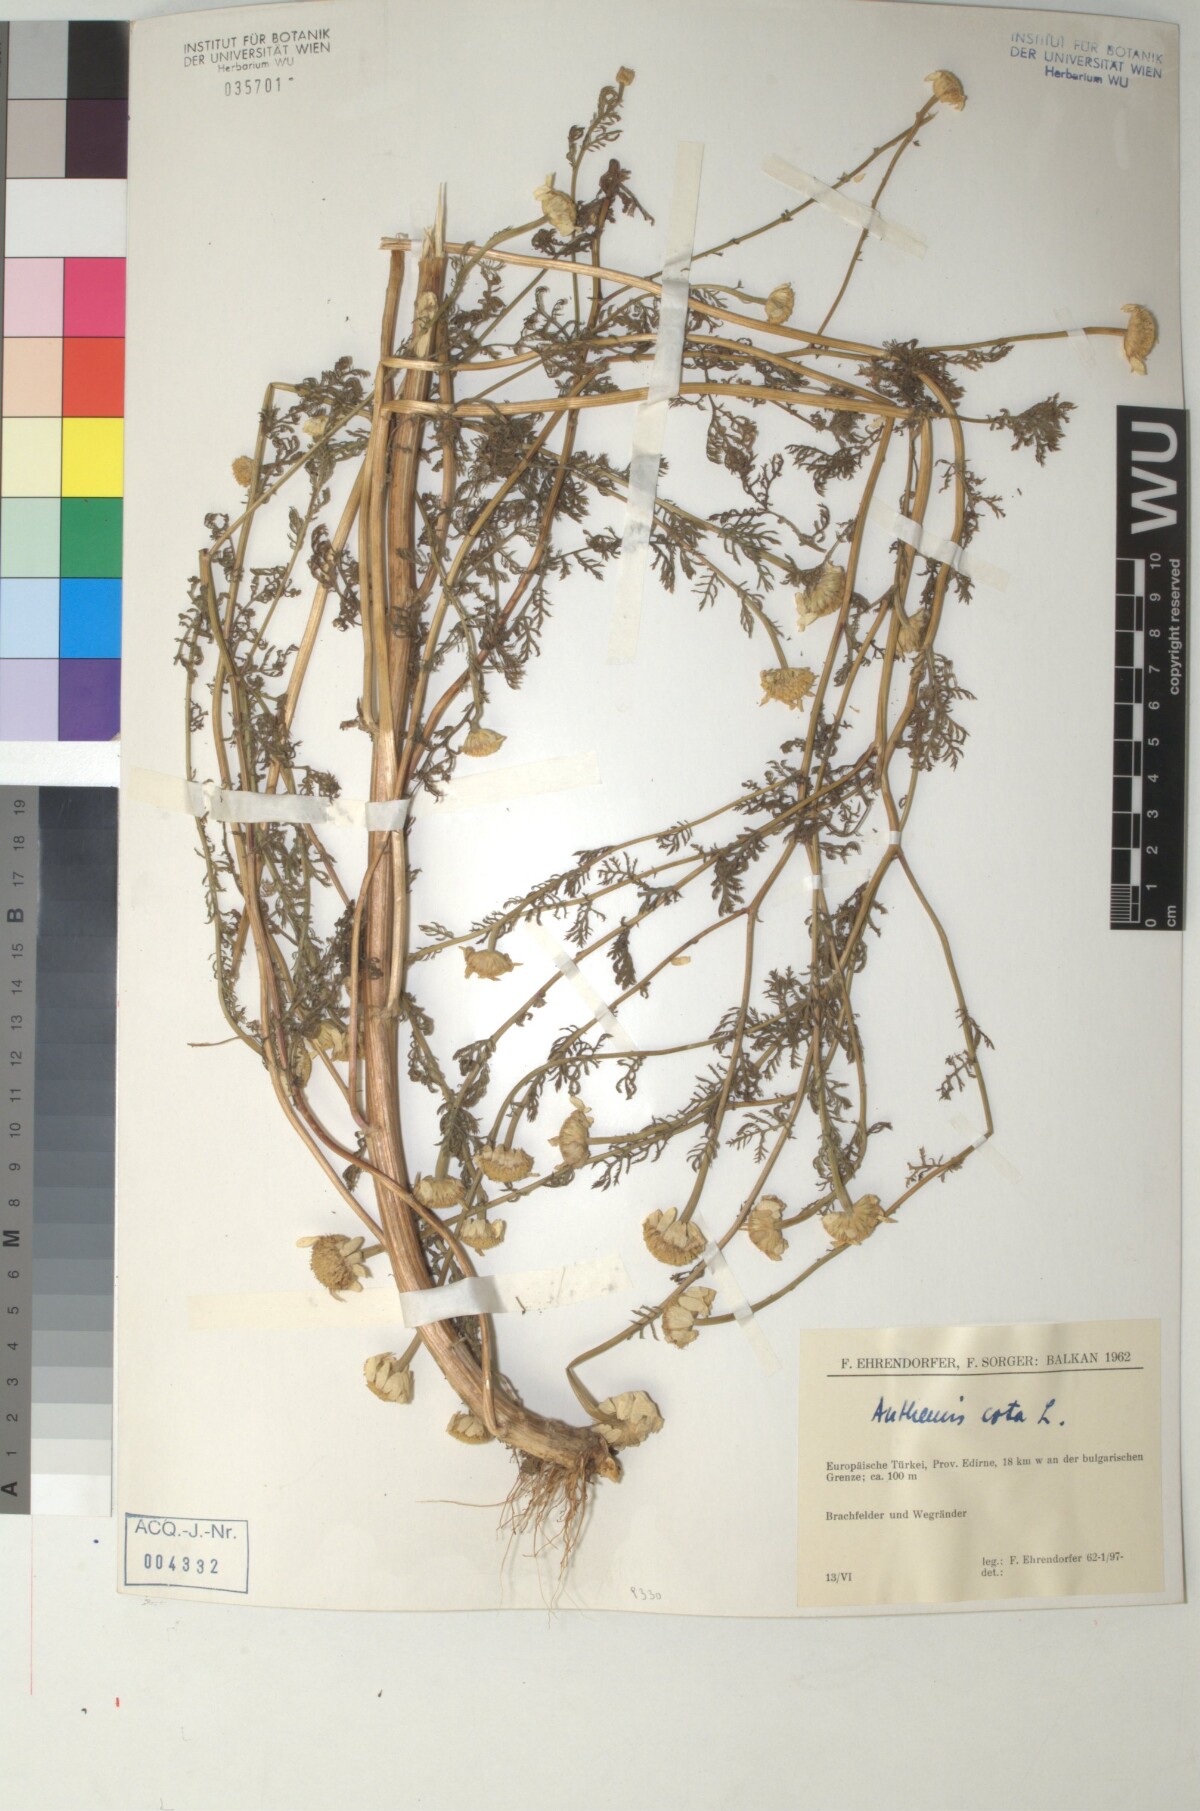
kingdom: Plantae
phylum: Tracheophyta
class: Magnoliopsida
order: Asterales
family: Asteraceae
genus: Cota
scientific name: Cota altissima
